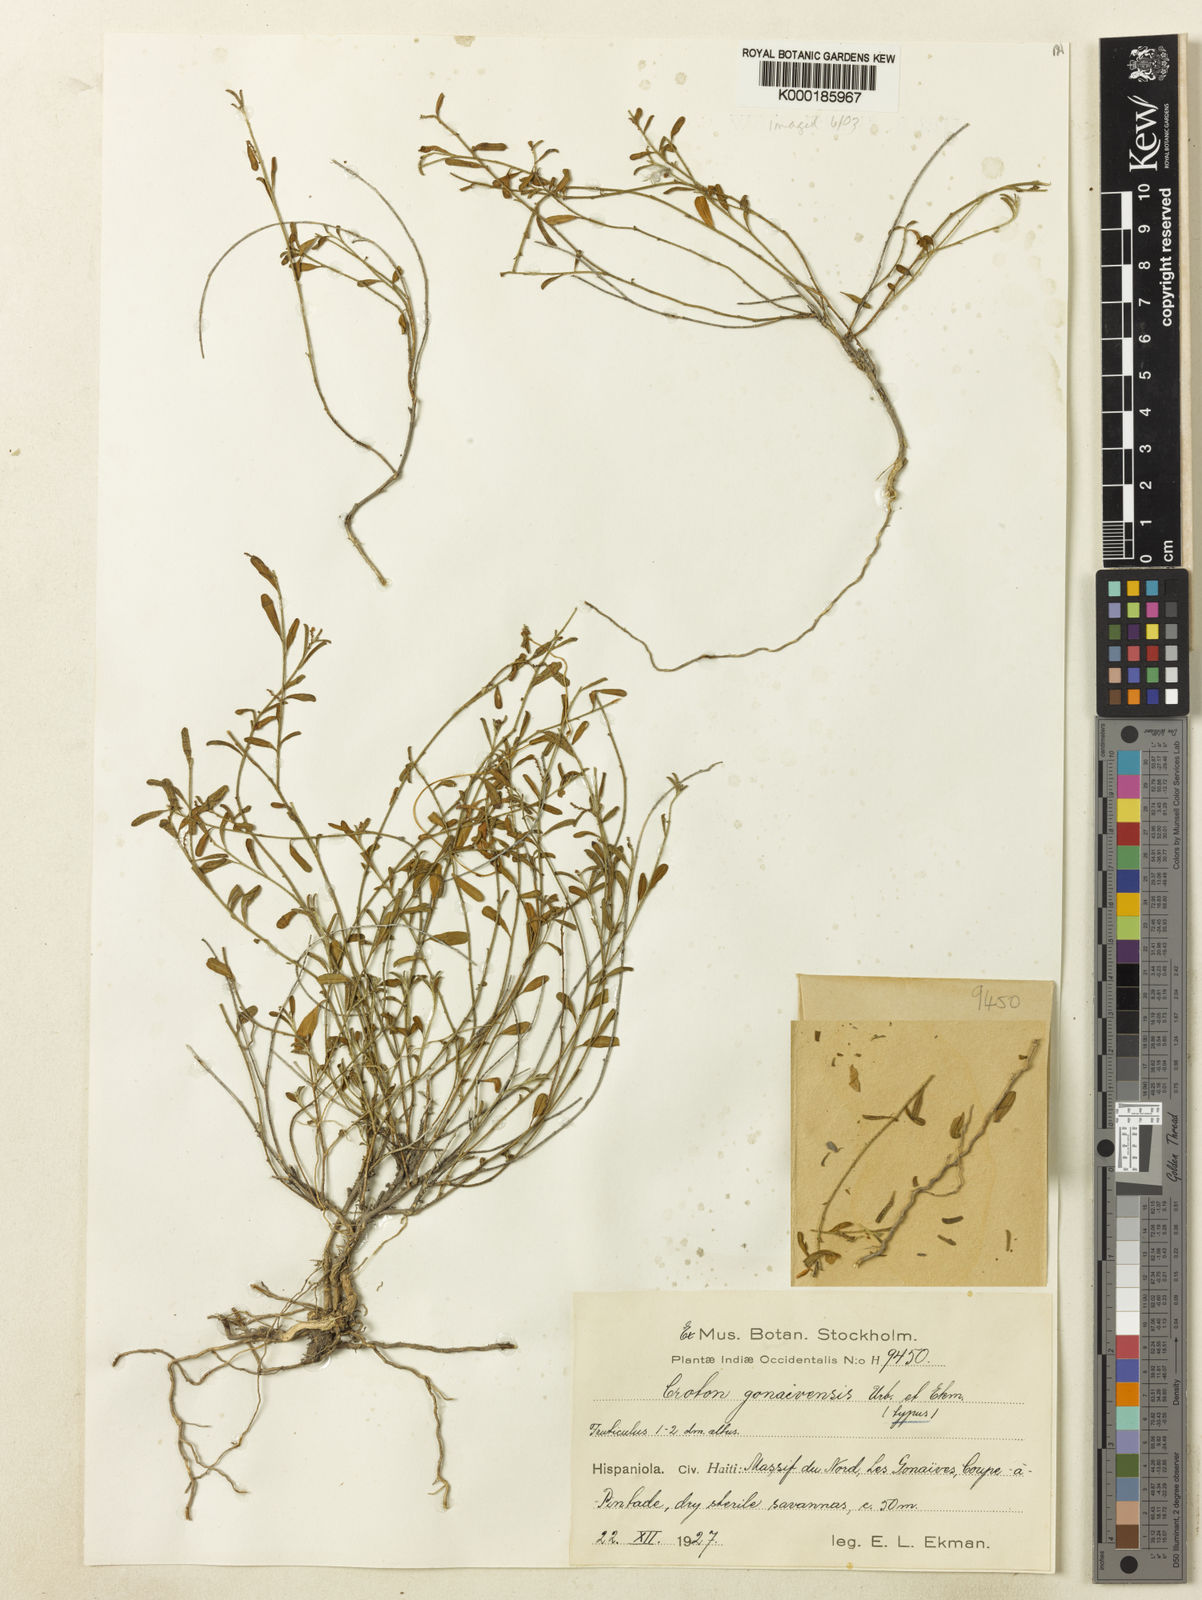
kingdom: Plantae
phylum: Tracheophyta
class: Magnoliopsida
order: Malpighiales
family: Euphorbiaceae
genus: Croton
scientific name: Croton gonaivensis
